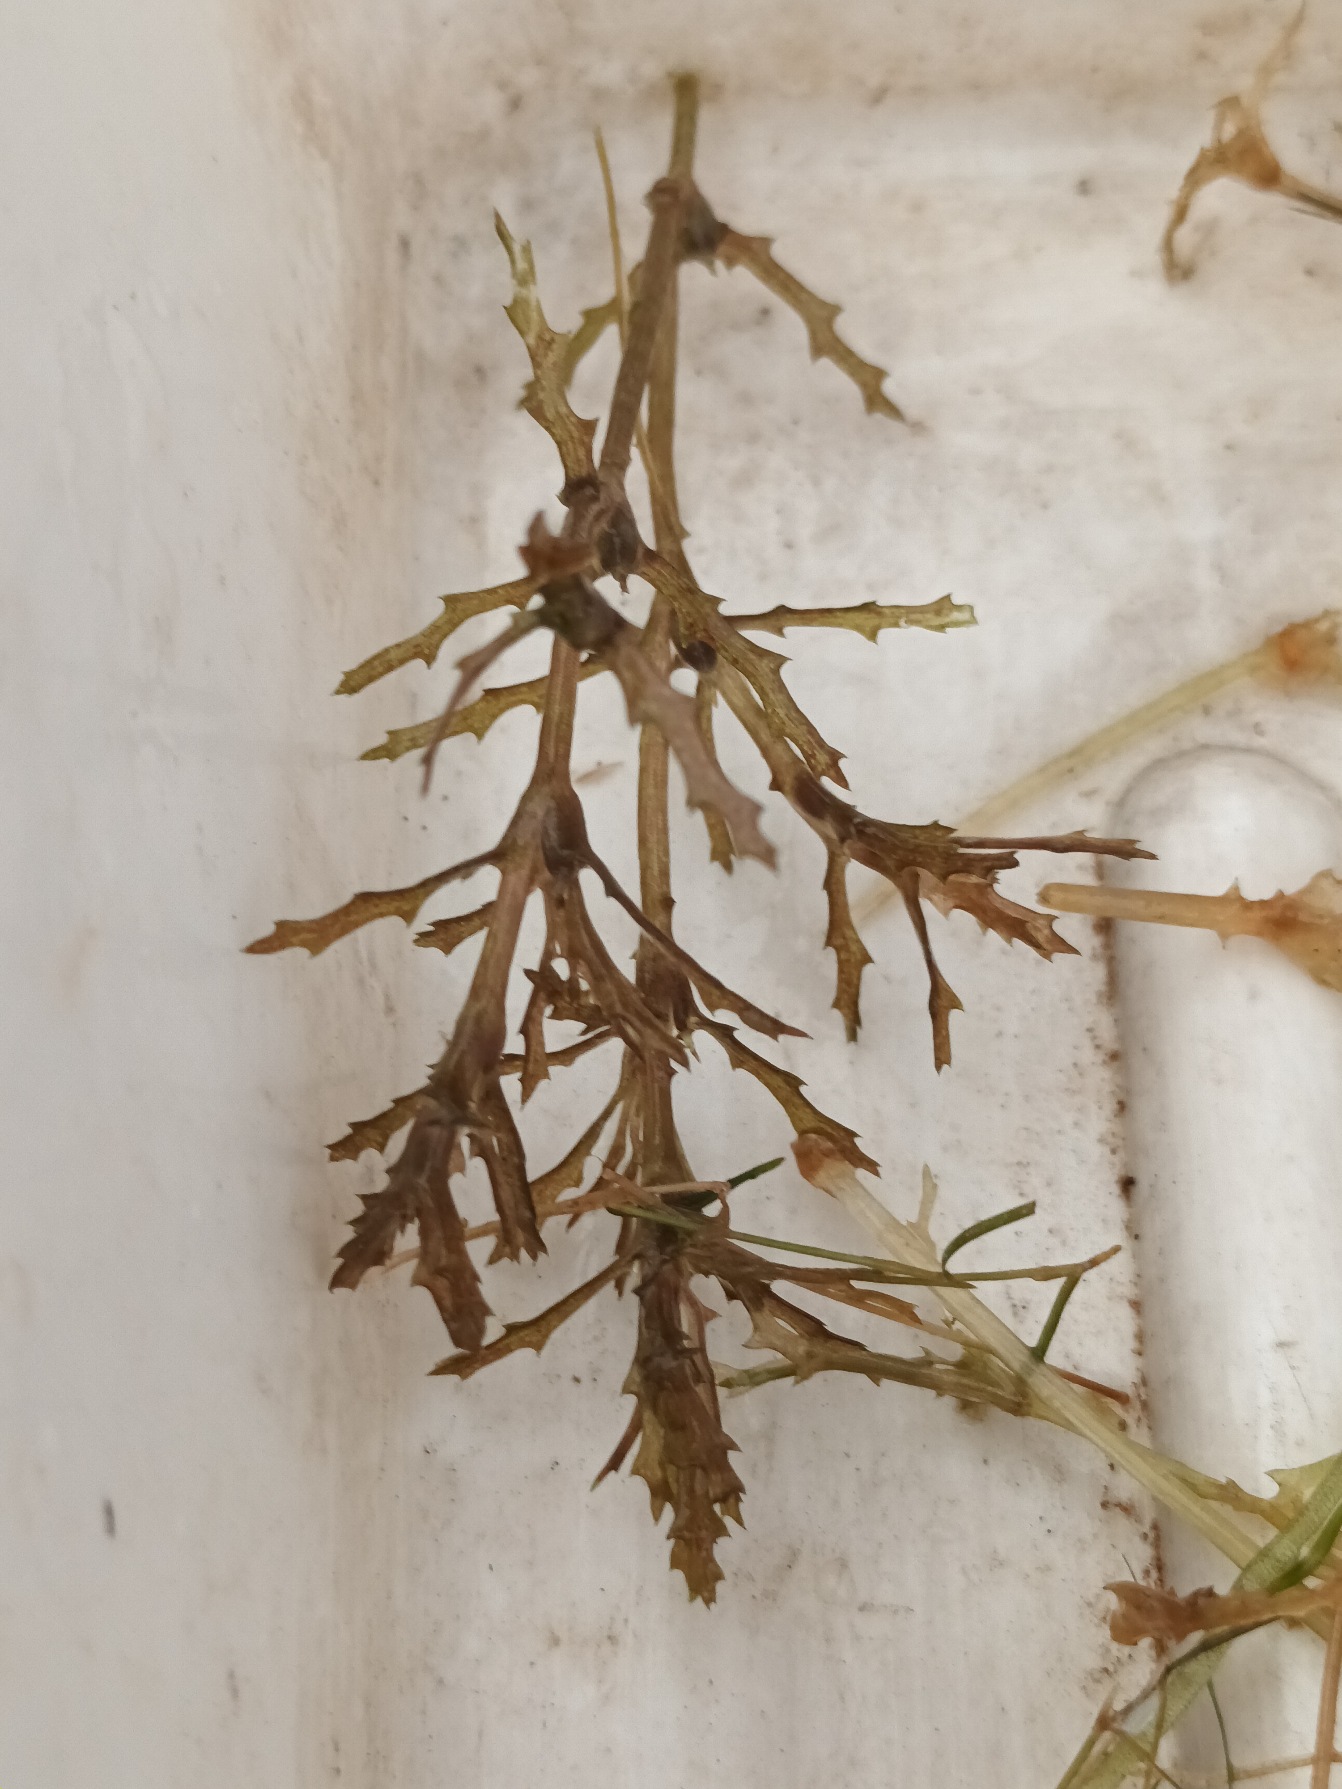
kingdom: Plantae
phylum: Tracheophyta
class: Liliopsida
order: Alismatales
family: Hydrocharitaceae
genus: Najas
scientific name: Najas marina
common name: Stor najade
